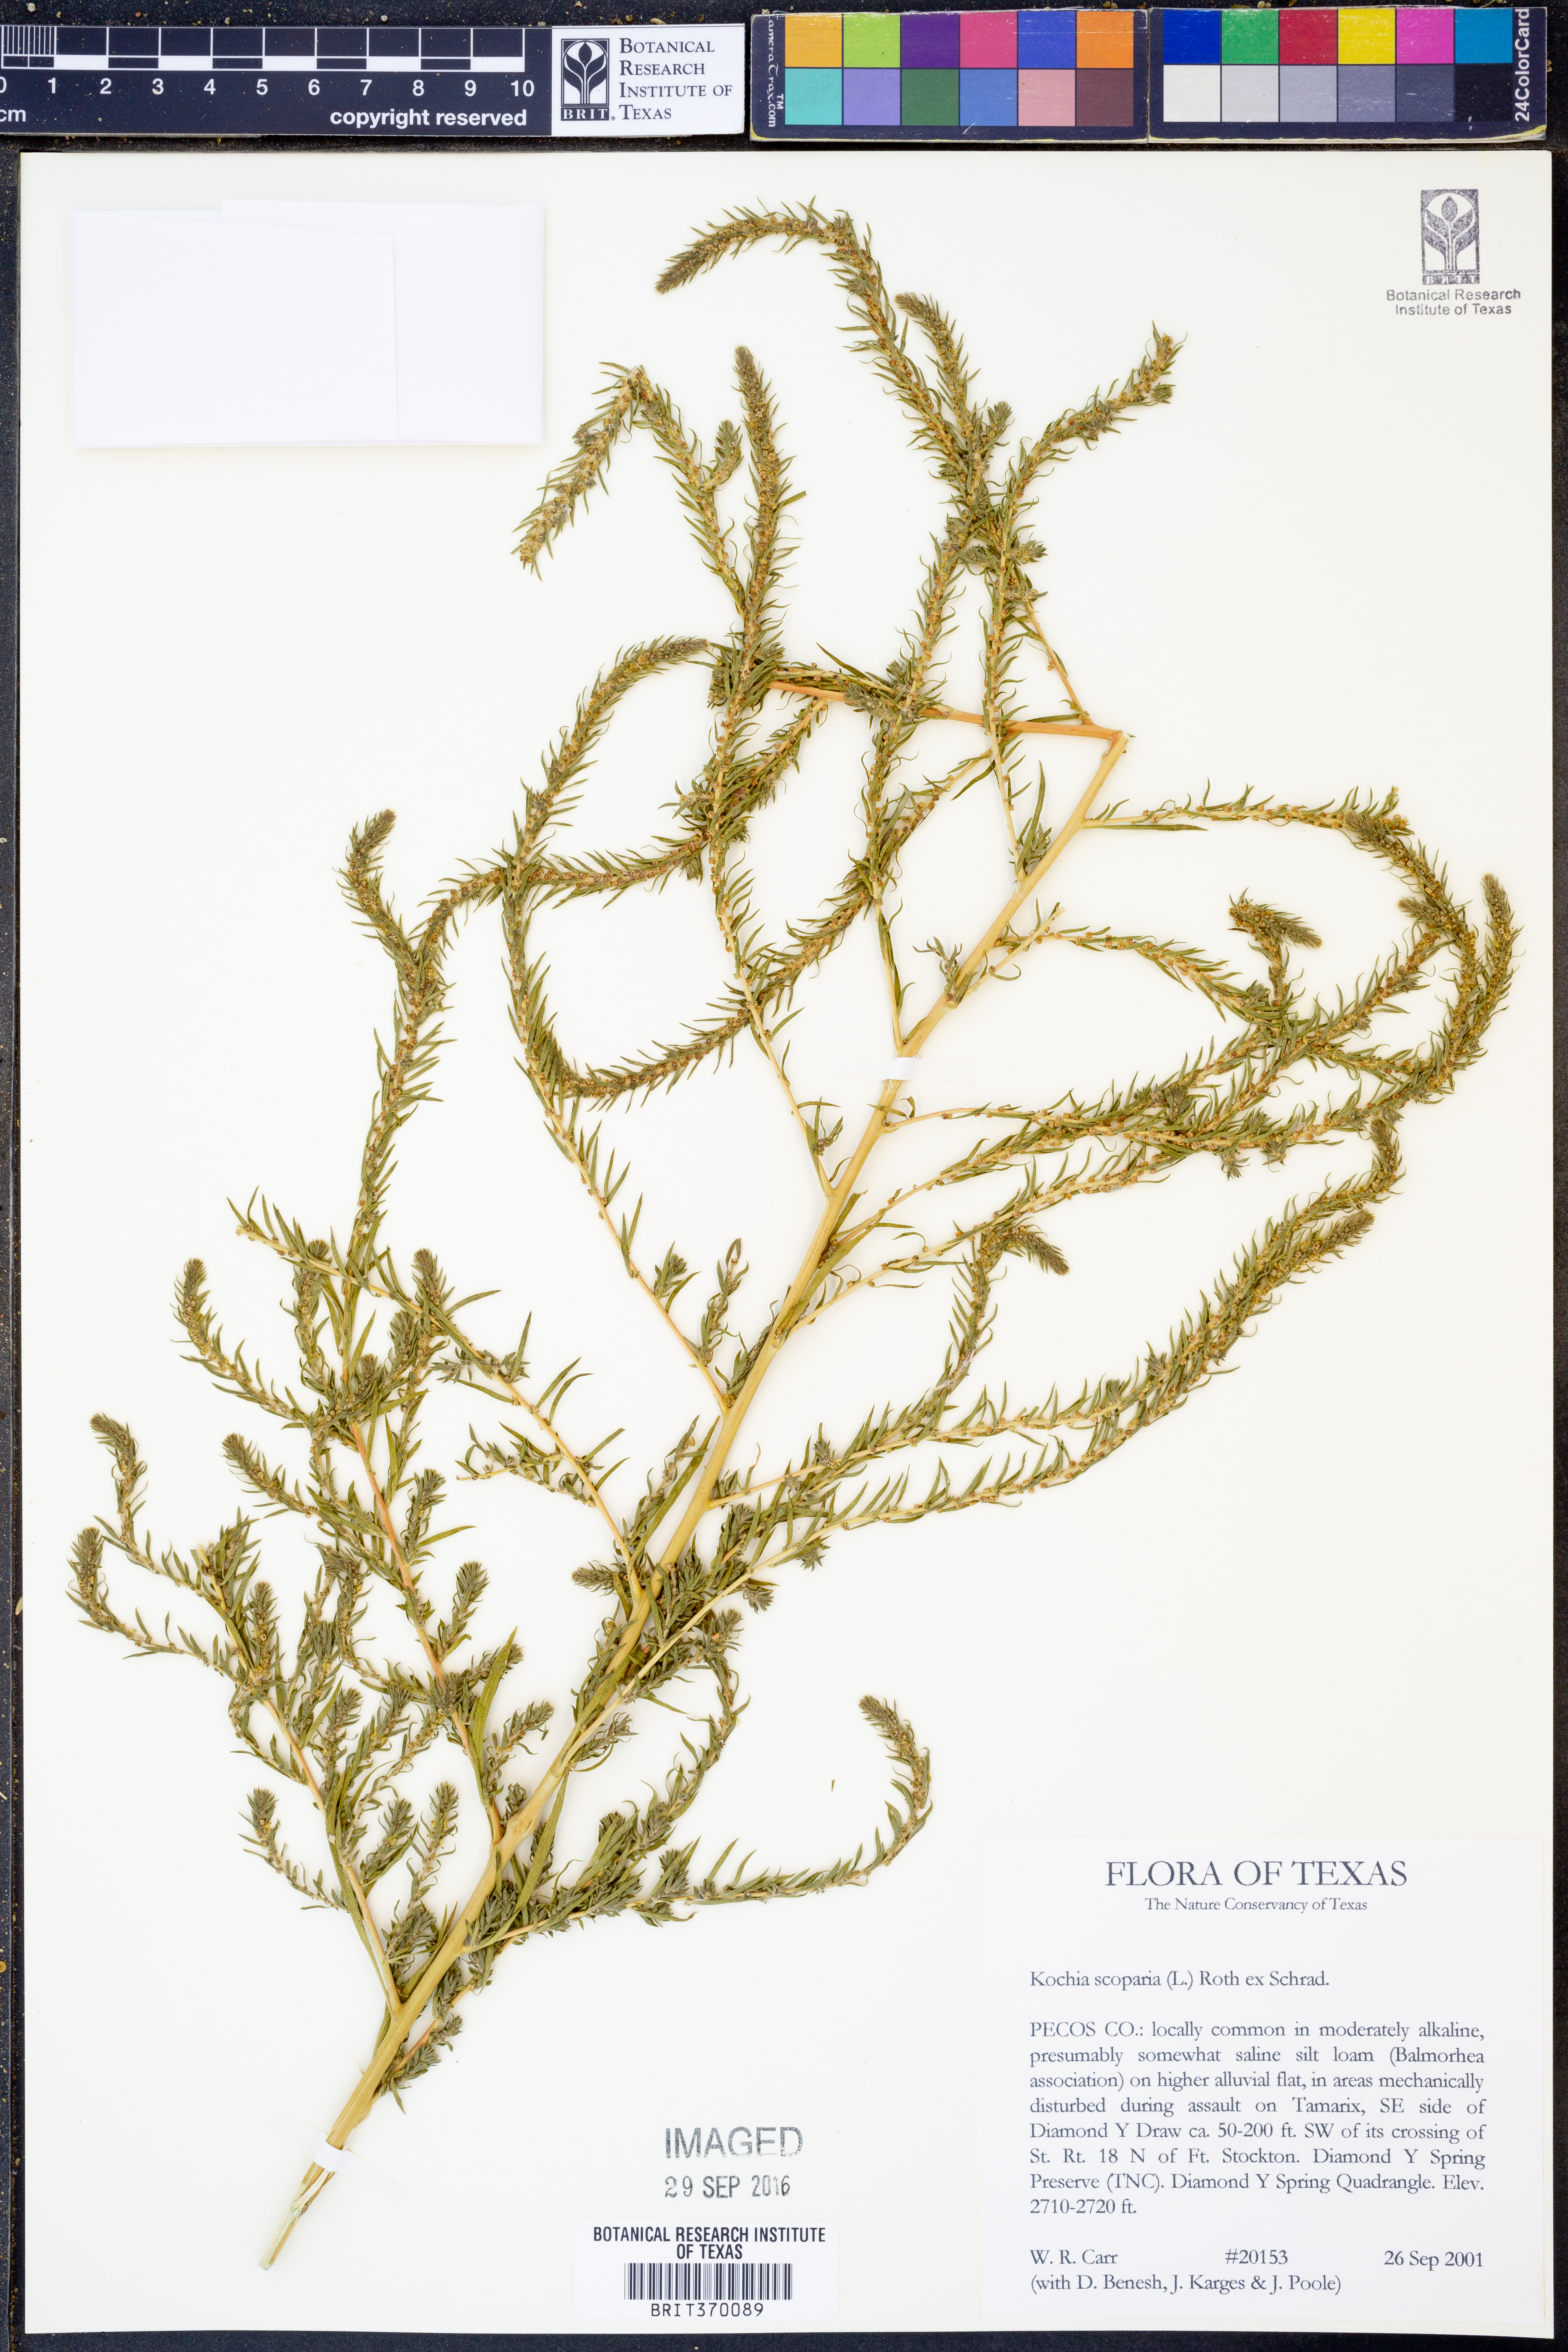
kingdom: Plantae
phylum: Tracheophyta
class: Magnoliopsida
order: Caryophyllales
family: Amaranthaceae
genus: Bassia
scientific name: Bassia scoparia
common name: Belvedere
